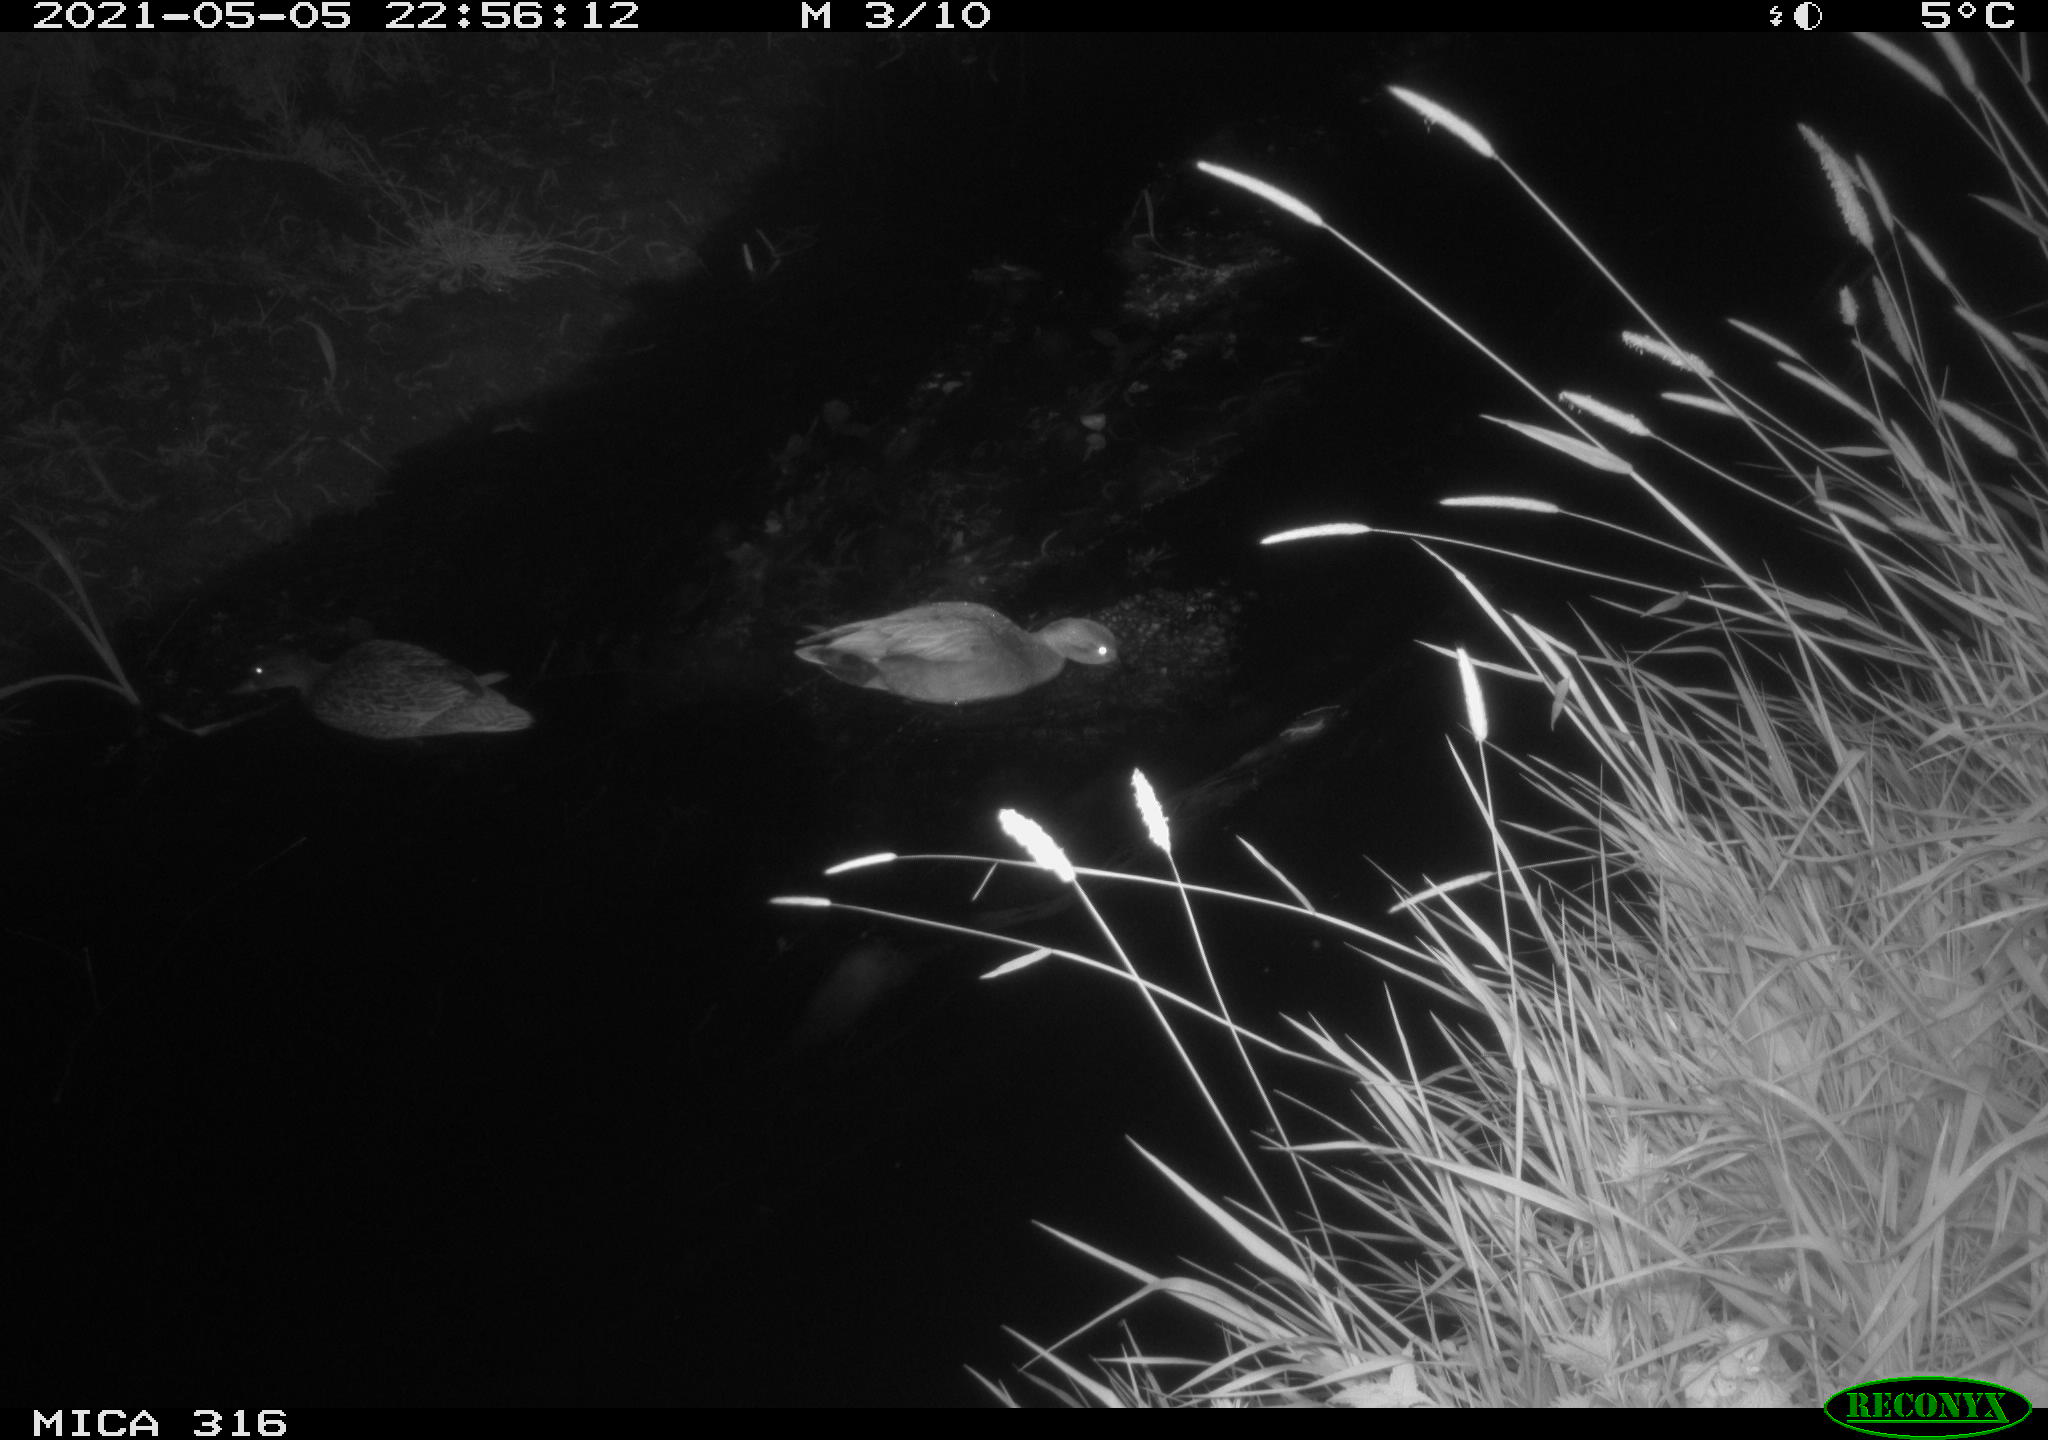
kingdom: Animalia
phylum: Chordata
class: Aves
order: Anseriformes
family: Anatidae
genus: Anas
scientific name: Anas platyrhynchos
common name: Mallard
